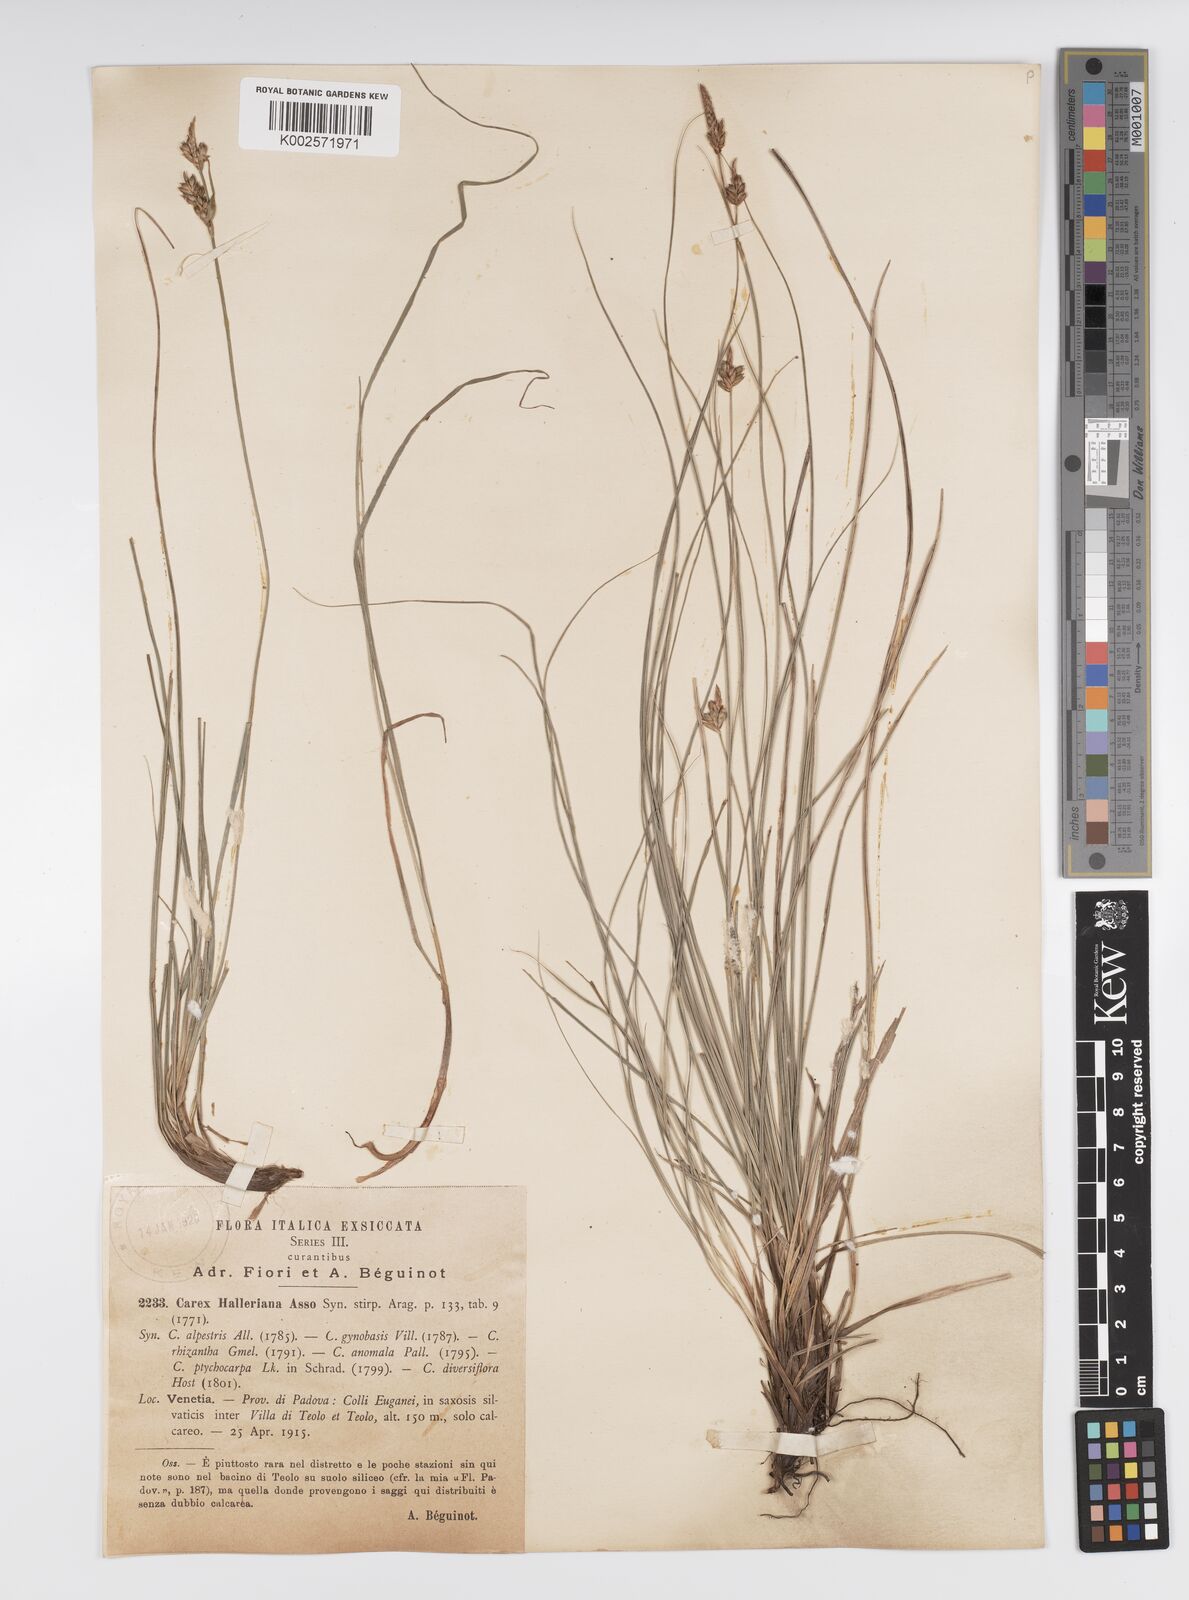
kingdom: Plantae
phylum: Tracheophyta
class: Liliopsida
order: Poales
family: Cyperaceae
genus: Carex
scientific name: Carex halleriana
